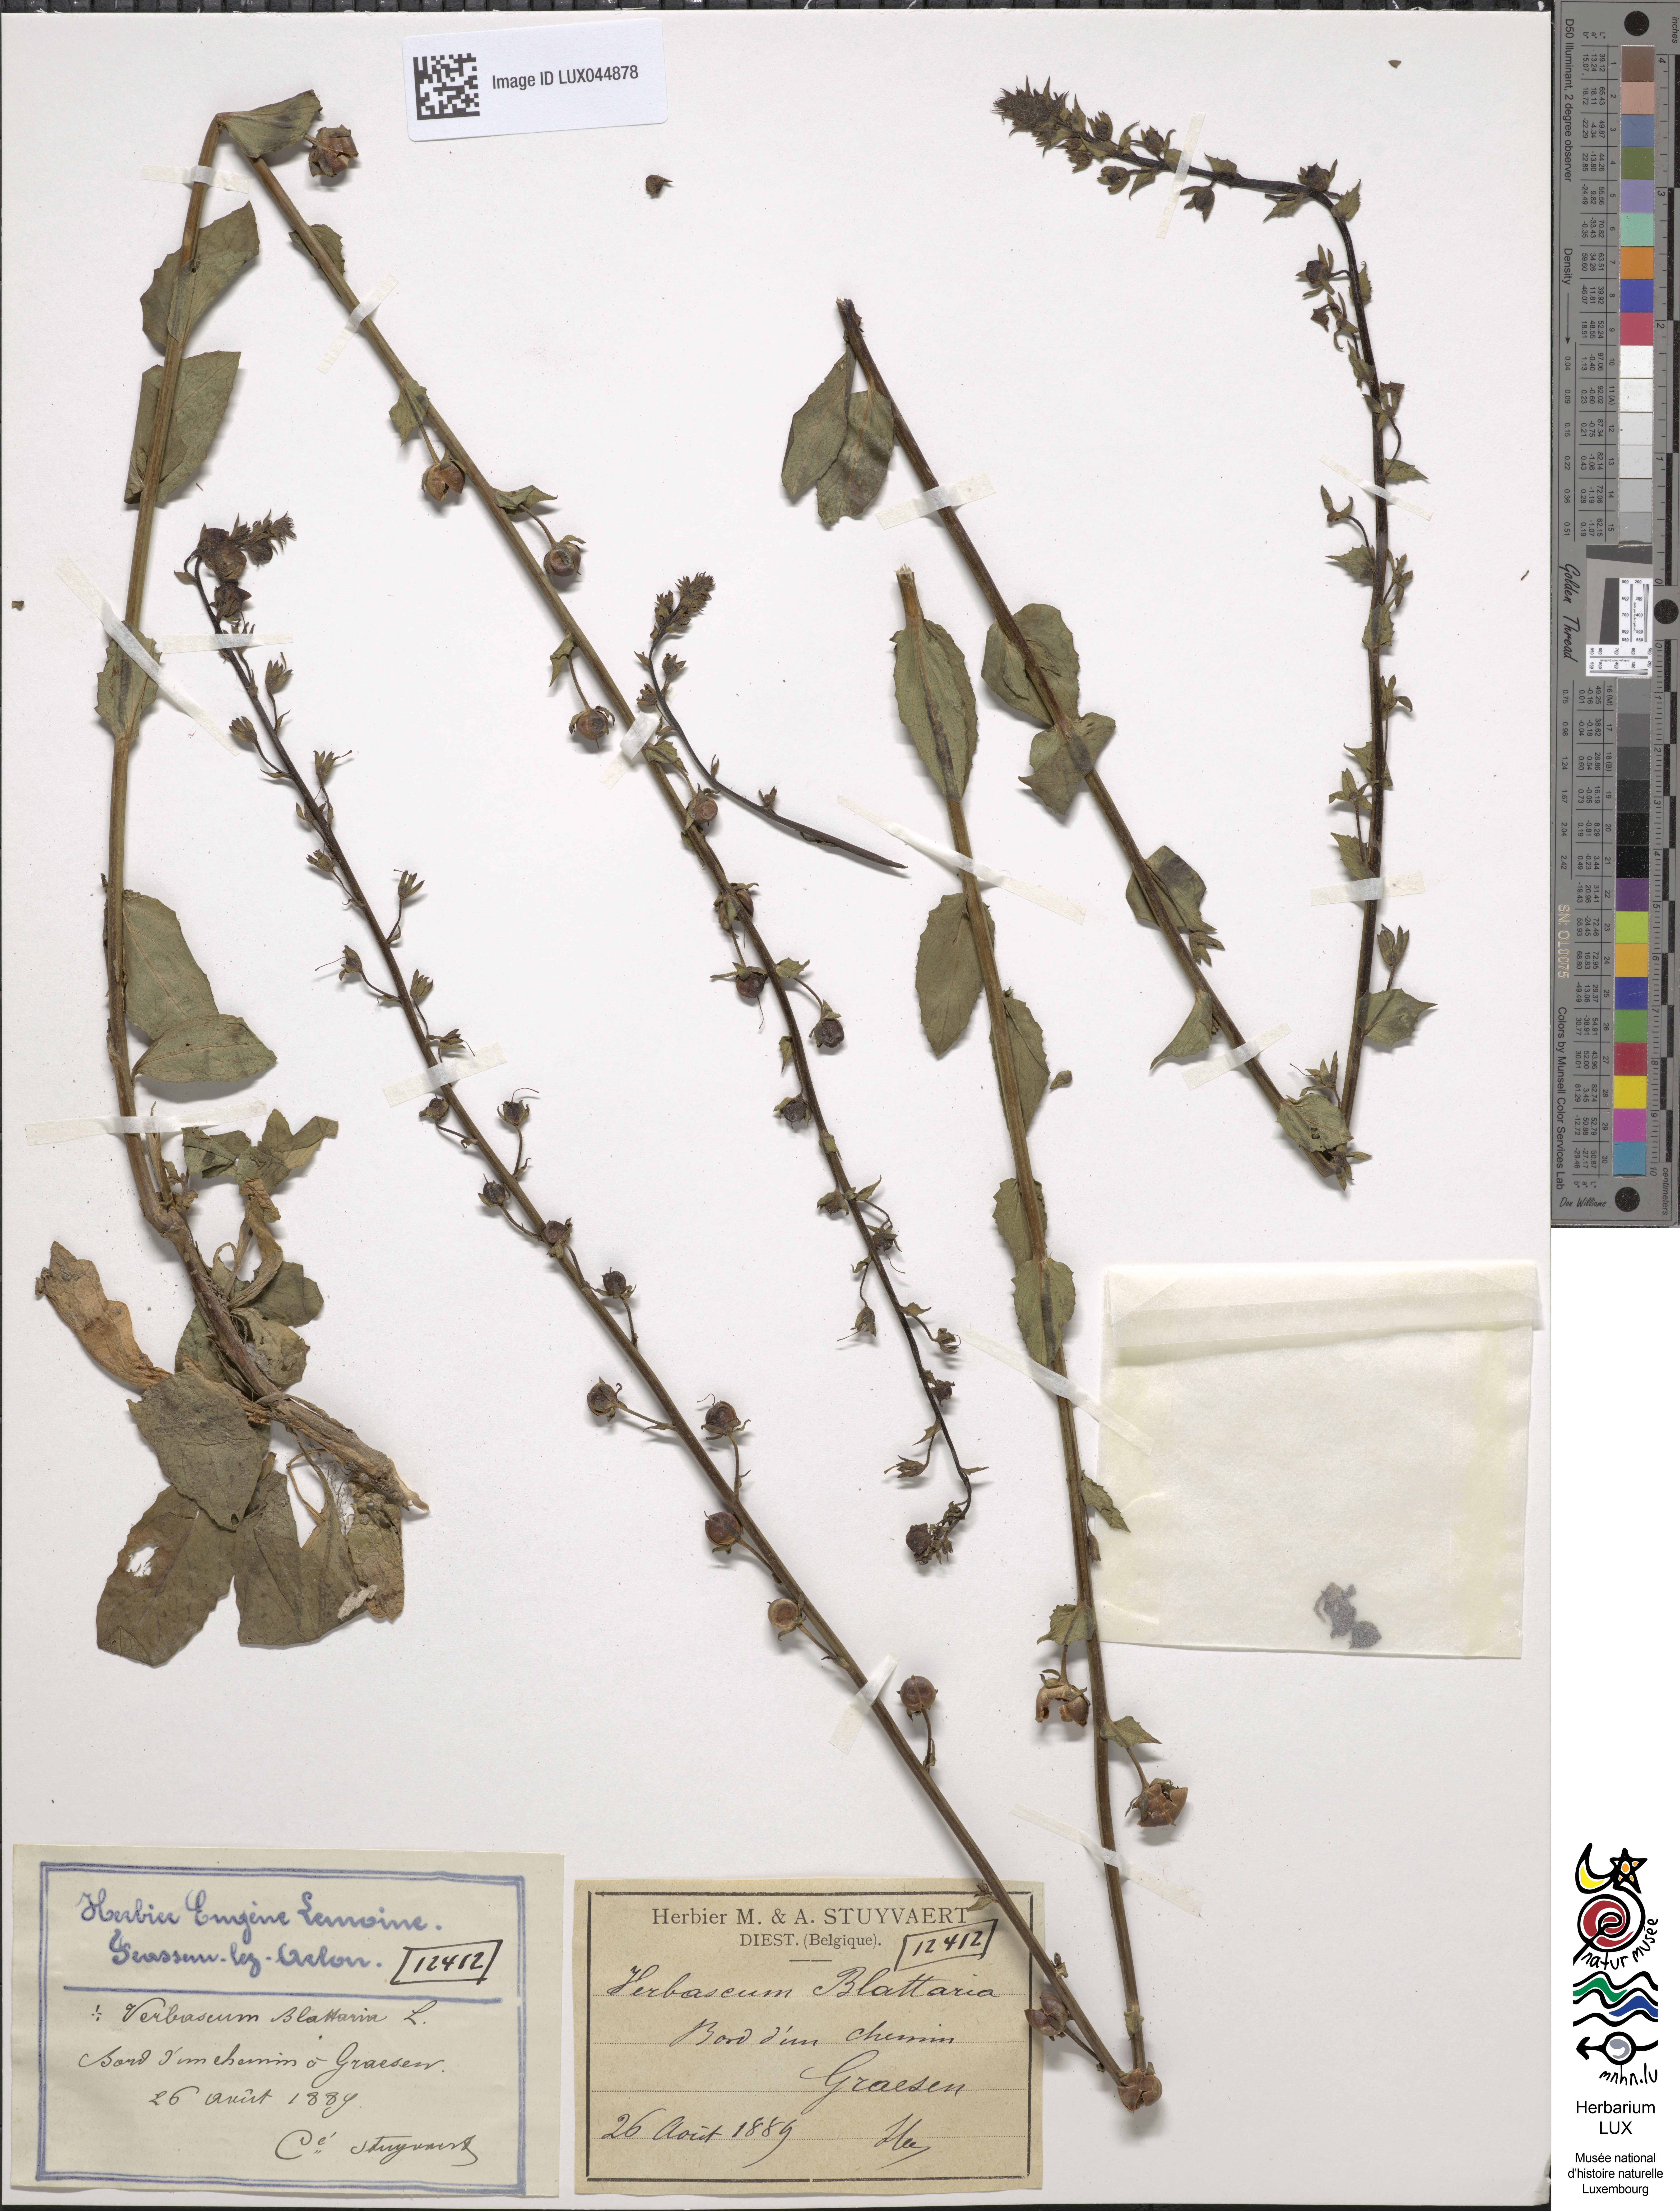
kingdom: Plantae
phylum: Tracheophyta
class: Magnoliopsida
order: Lamiales
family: Scrophulariaceae
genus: Verbascum
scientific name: Verbascum blattaria
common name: Moth mullein
